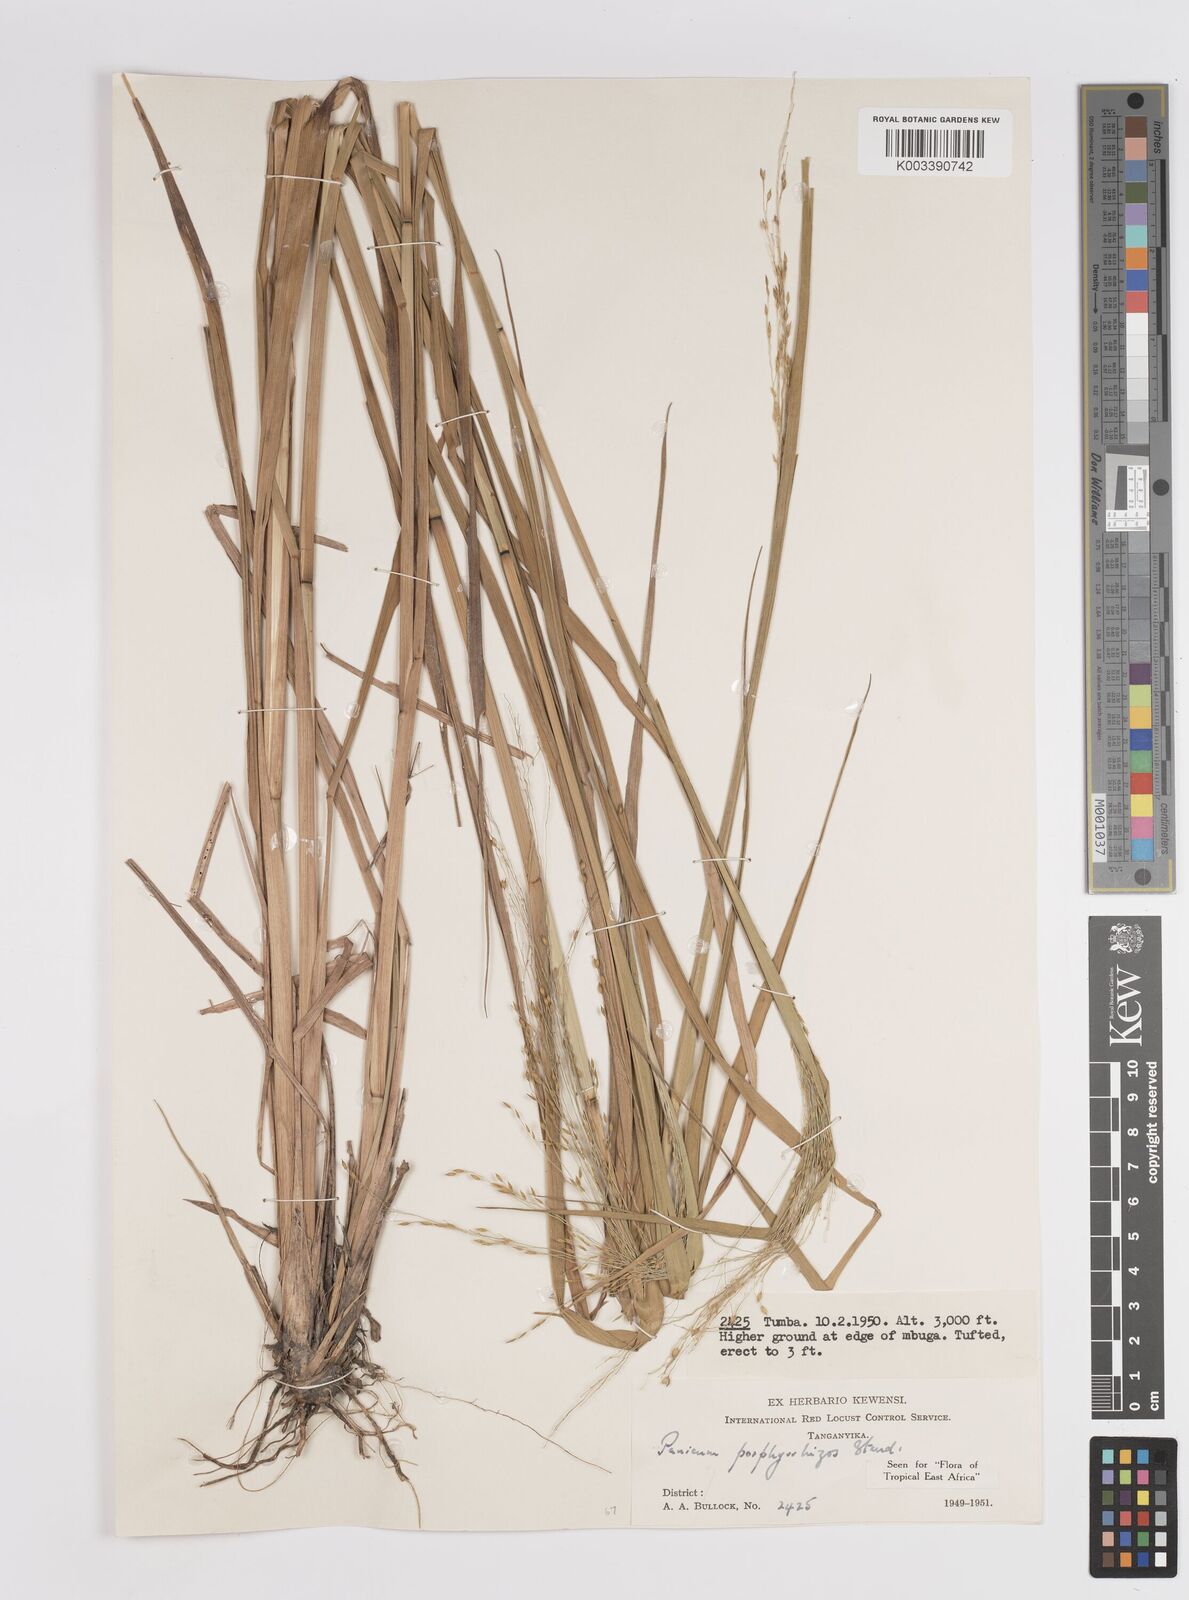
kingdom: Plantae
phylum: Tracheophyta
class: Liliopsida
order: Poales
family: Poaceae
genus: Panicum
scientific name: Panicum porphyrrhizos
